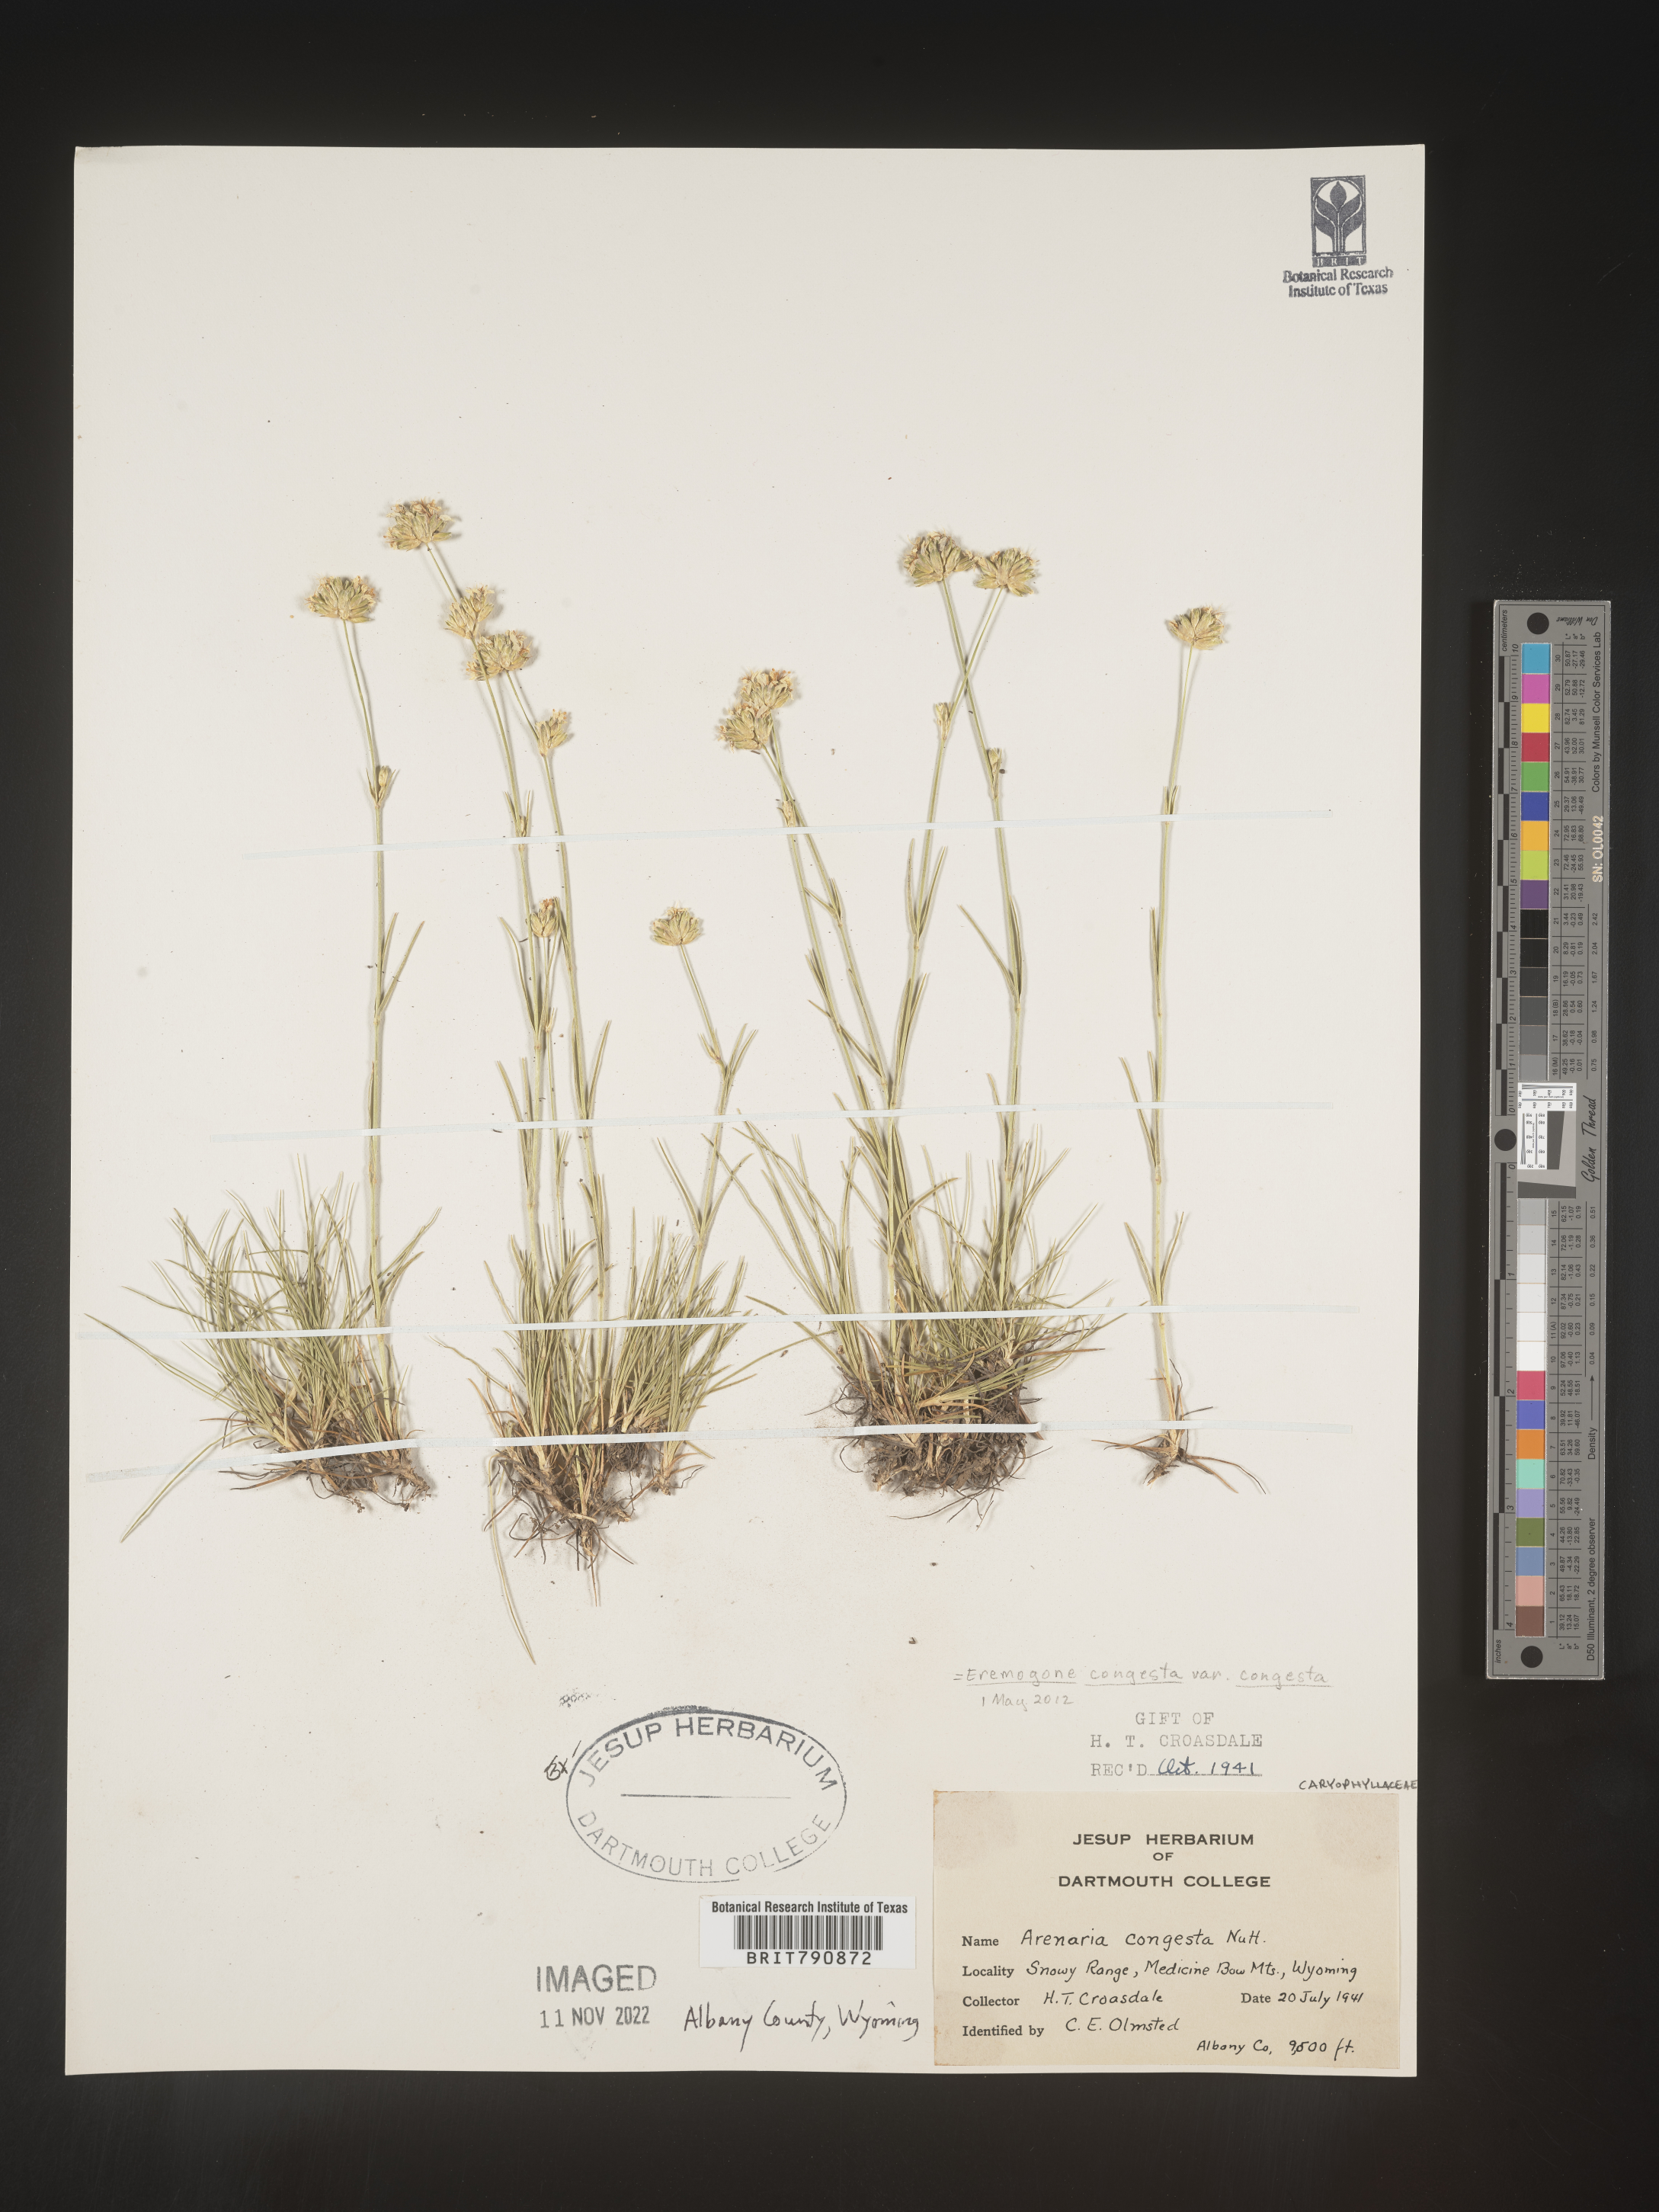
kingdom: Plantae
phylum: Tracheophyta
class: Magnoliopsida
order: Caryophyllales
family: Caryophyllaceae
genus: Eremogone
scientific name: Eremogone
